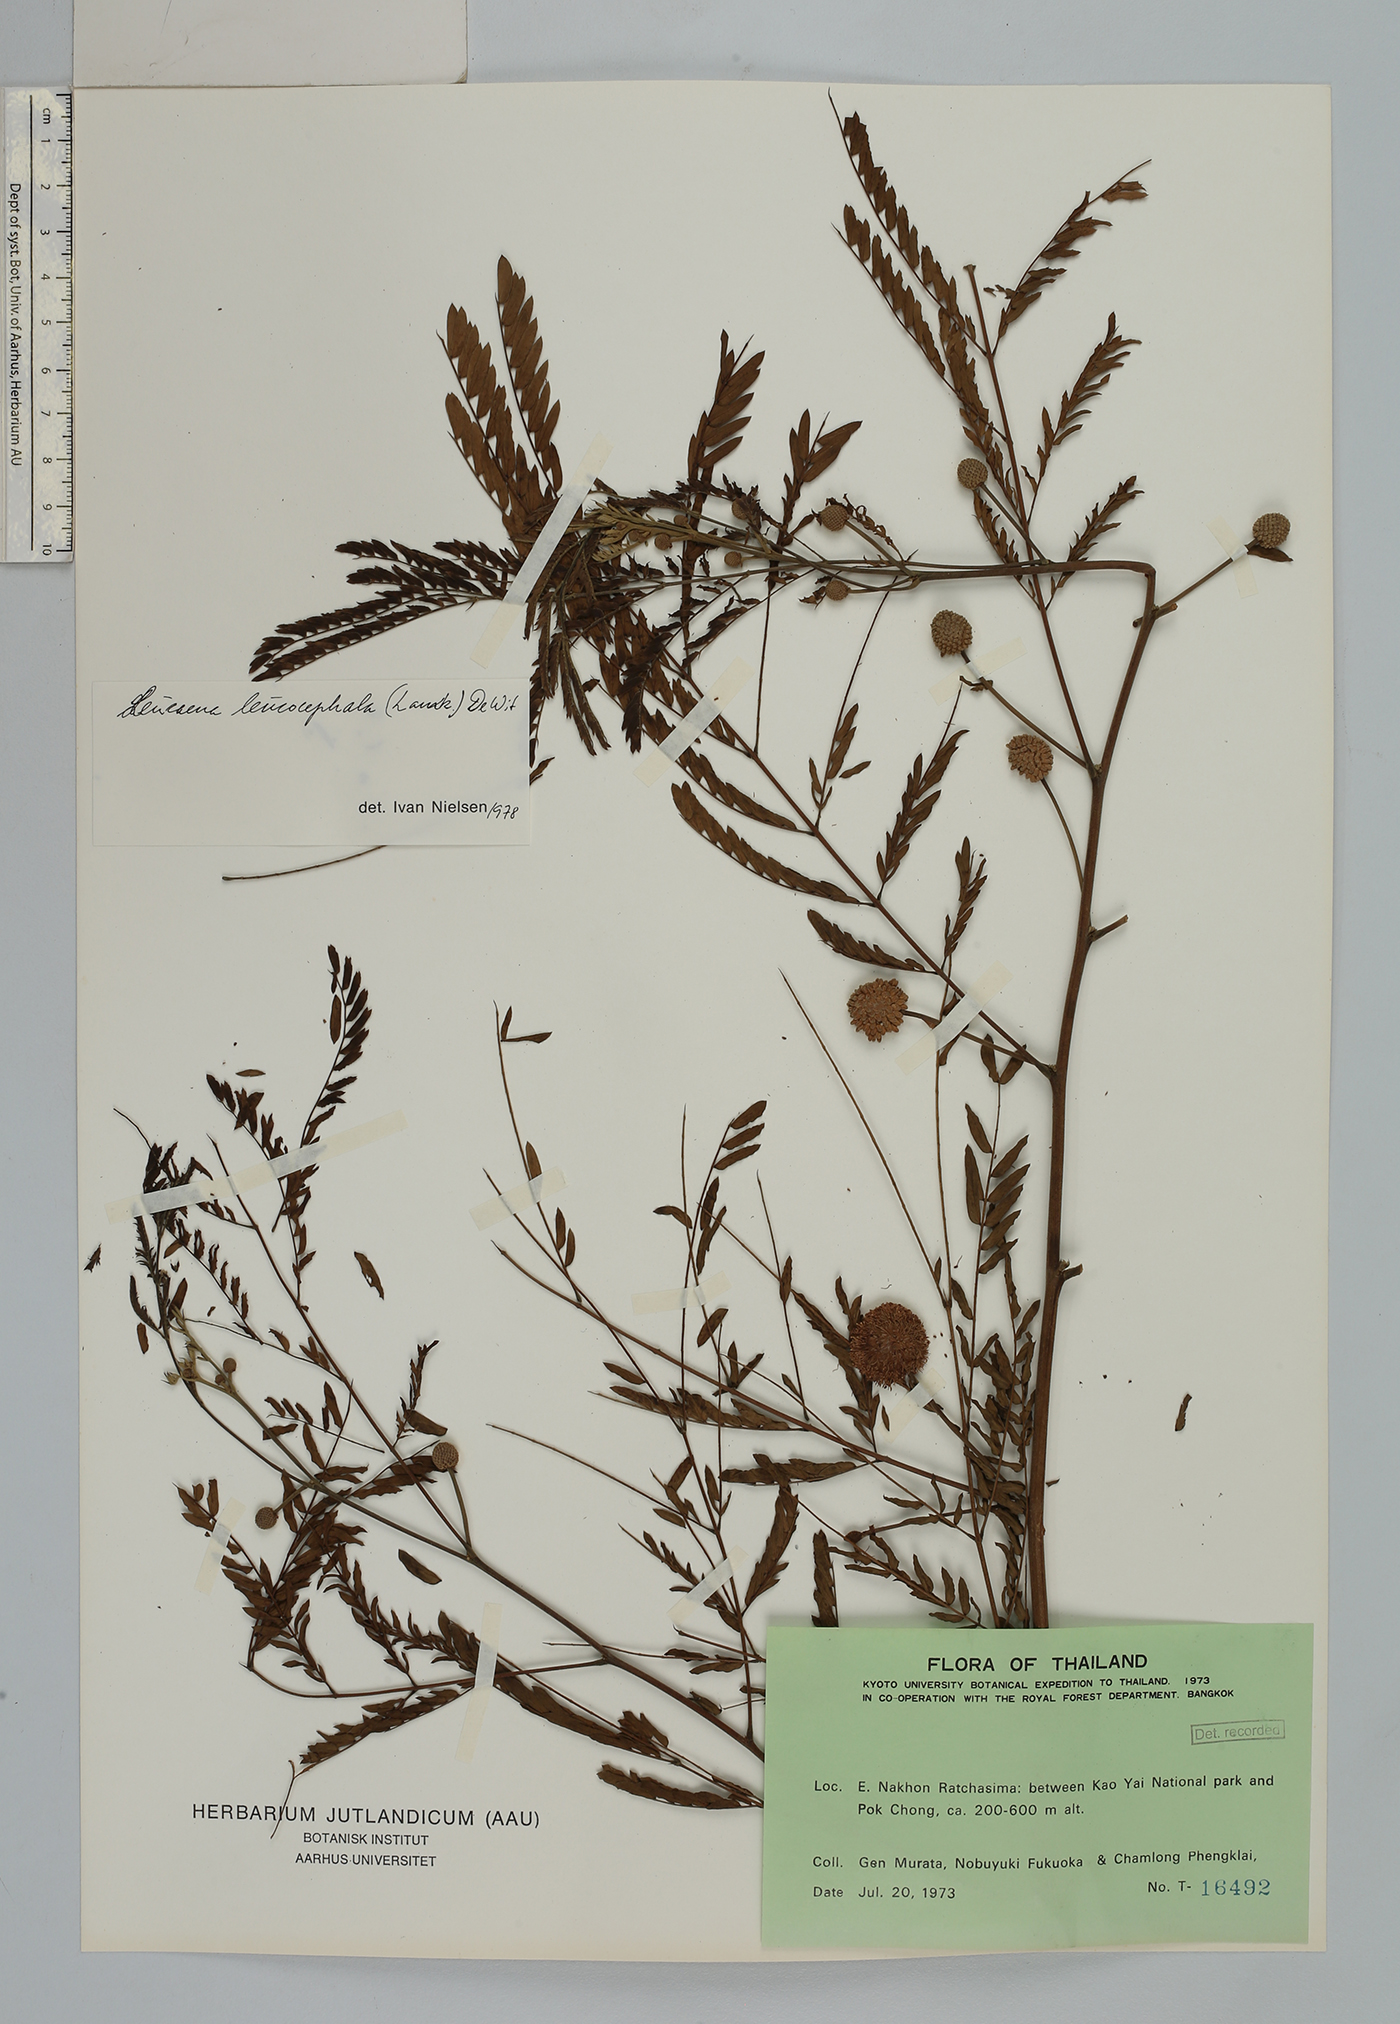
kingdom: Plantae
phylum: Tracheophyta
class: Magnoliopsida
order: Fabales
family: Fabaceae
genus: Leucaena
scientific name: Leucaena leucocephala
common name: White leadtree
